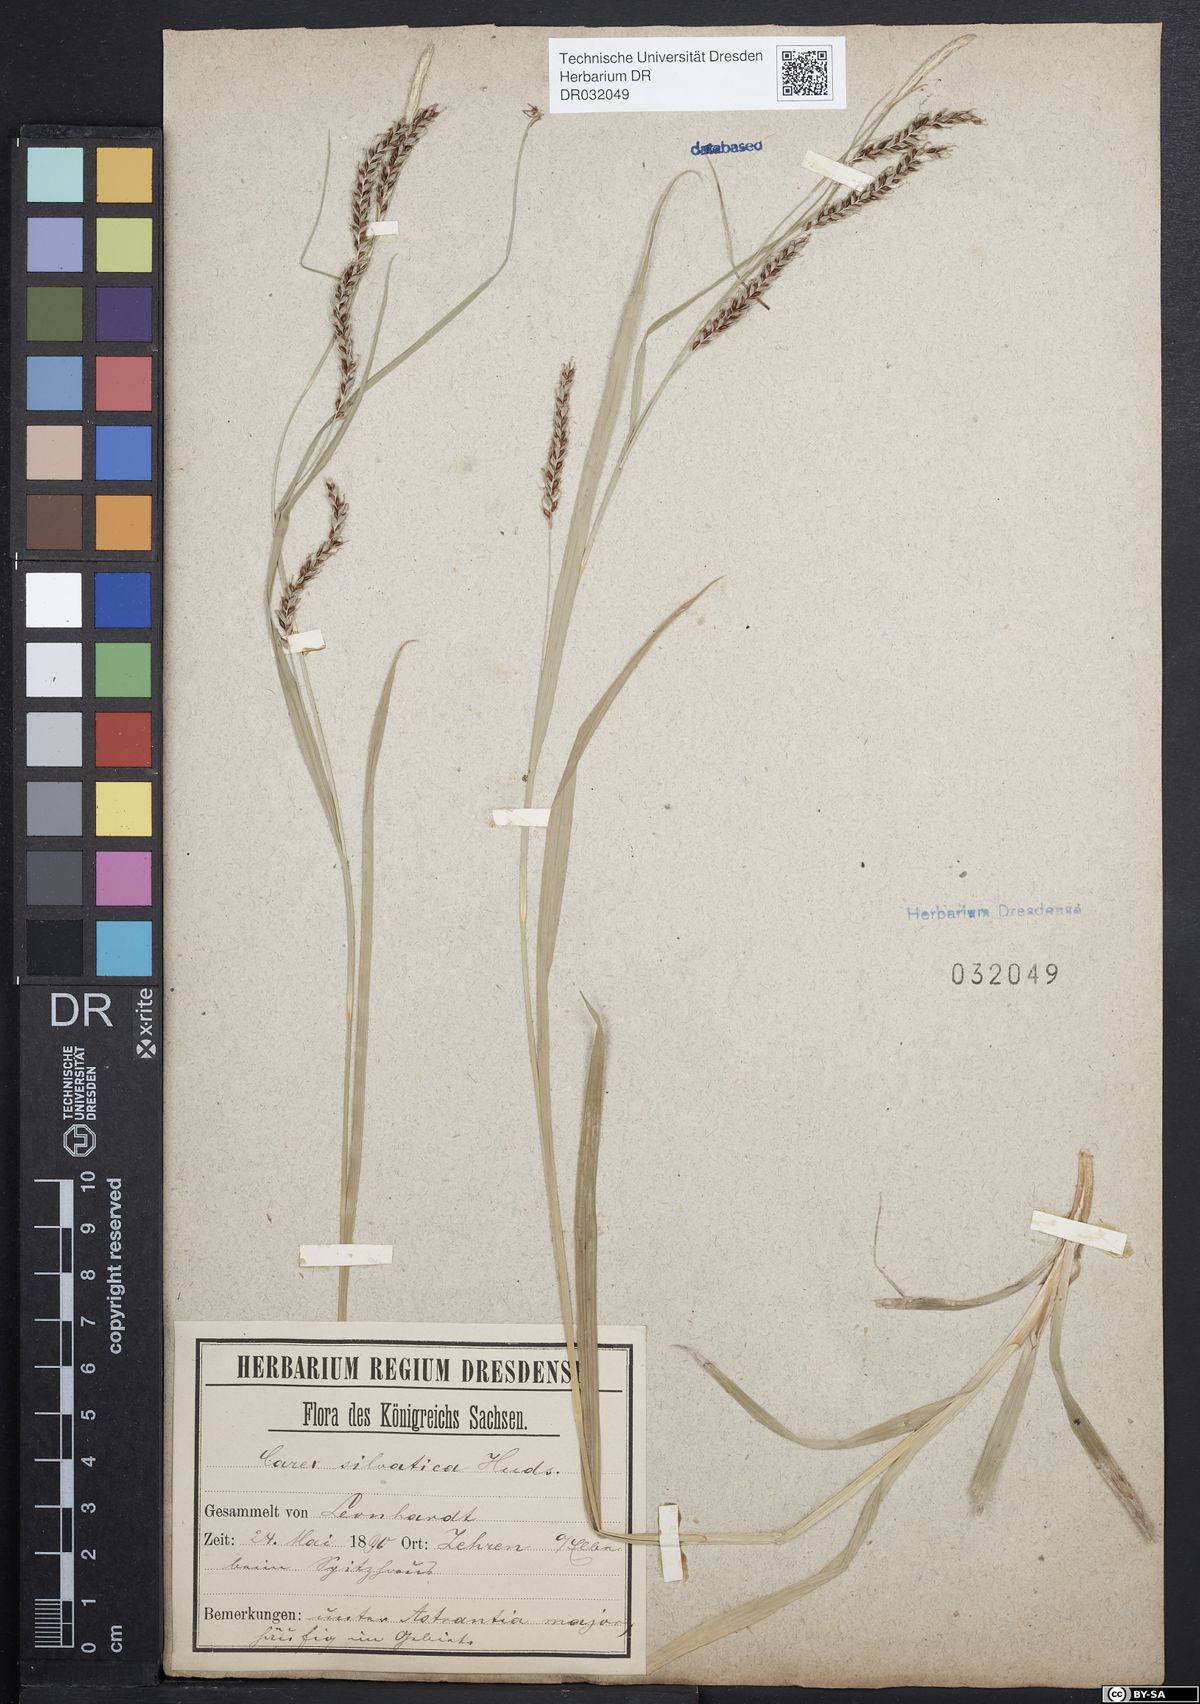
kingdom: Plantae
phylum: Tracheophyta
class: Liliopsida
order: Poales
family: Cyperaceae
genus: Carex
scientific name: Carex sylvatica
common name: Wood-sedge
